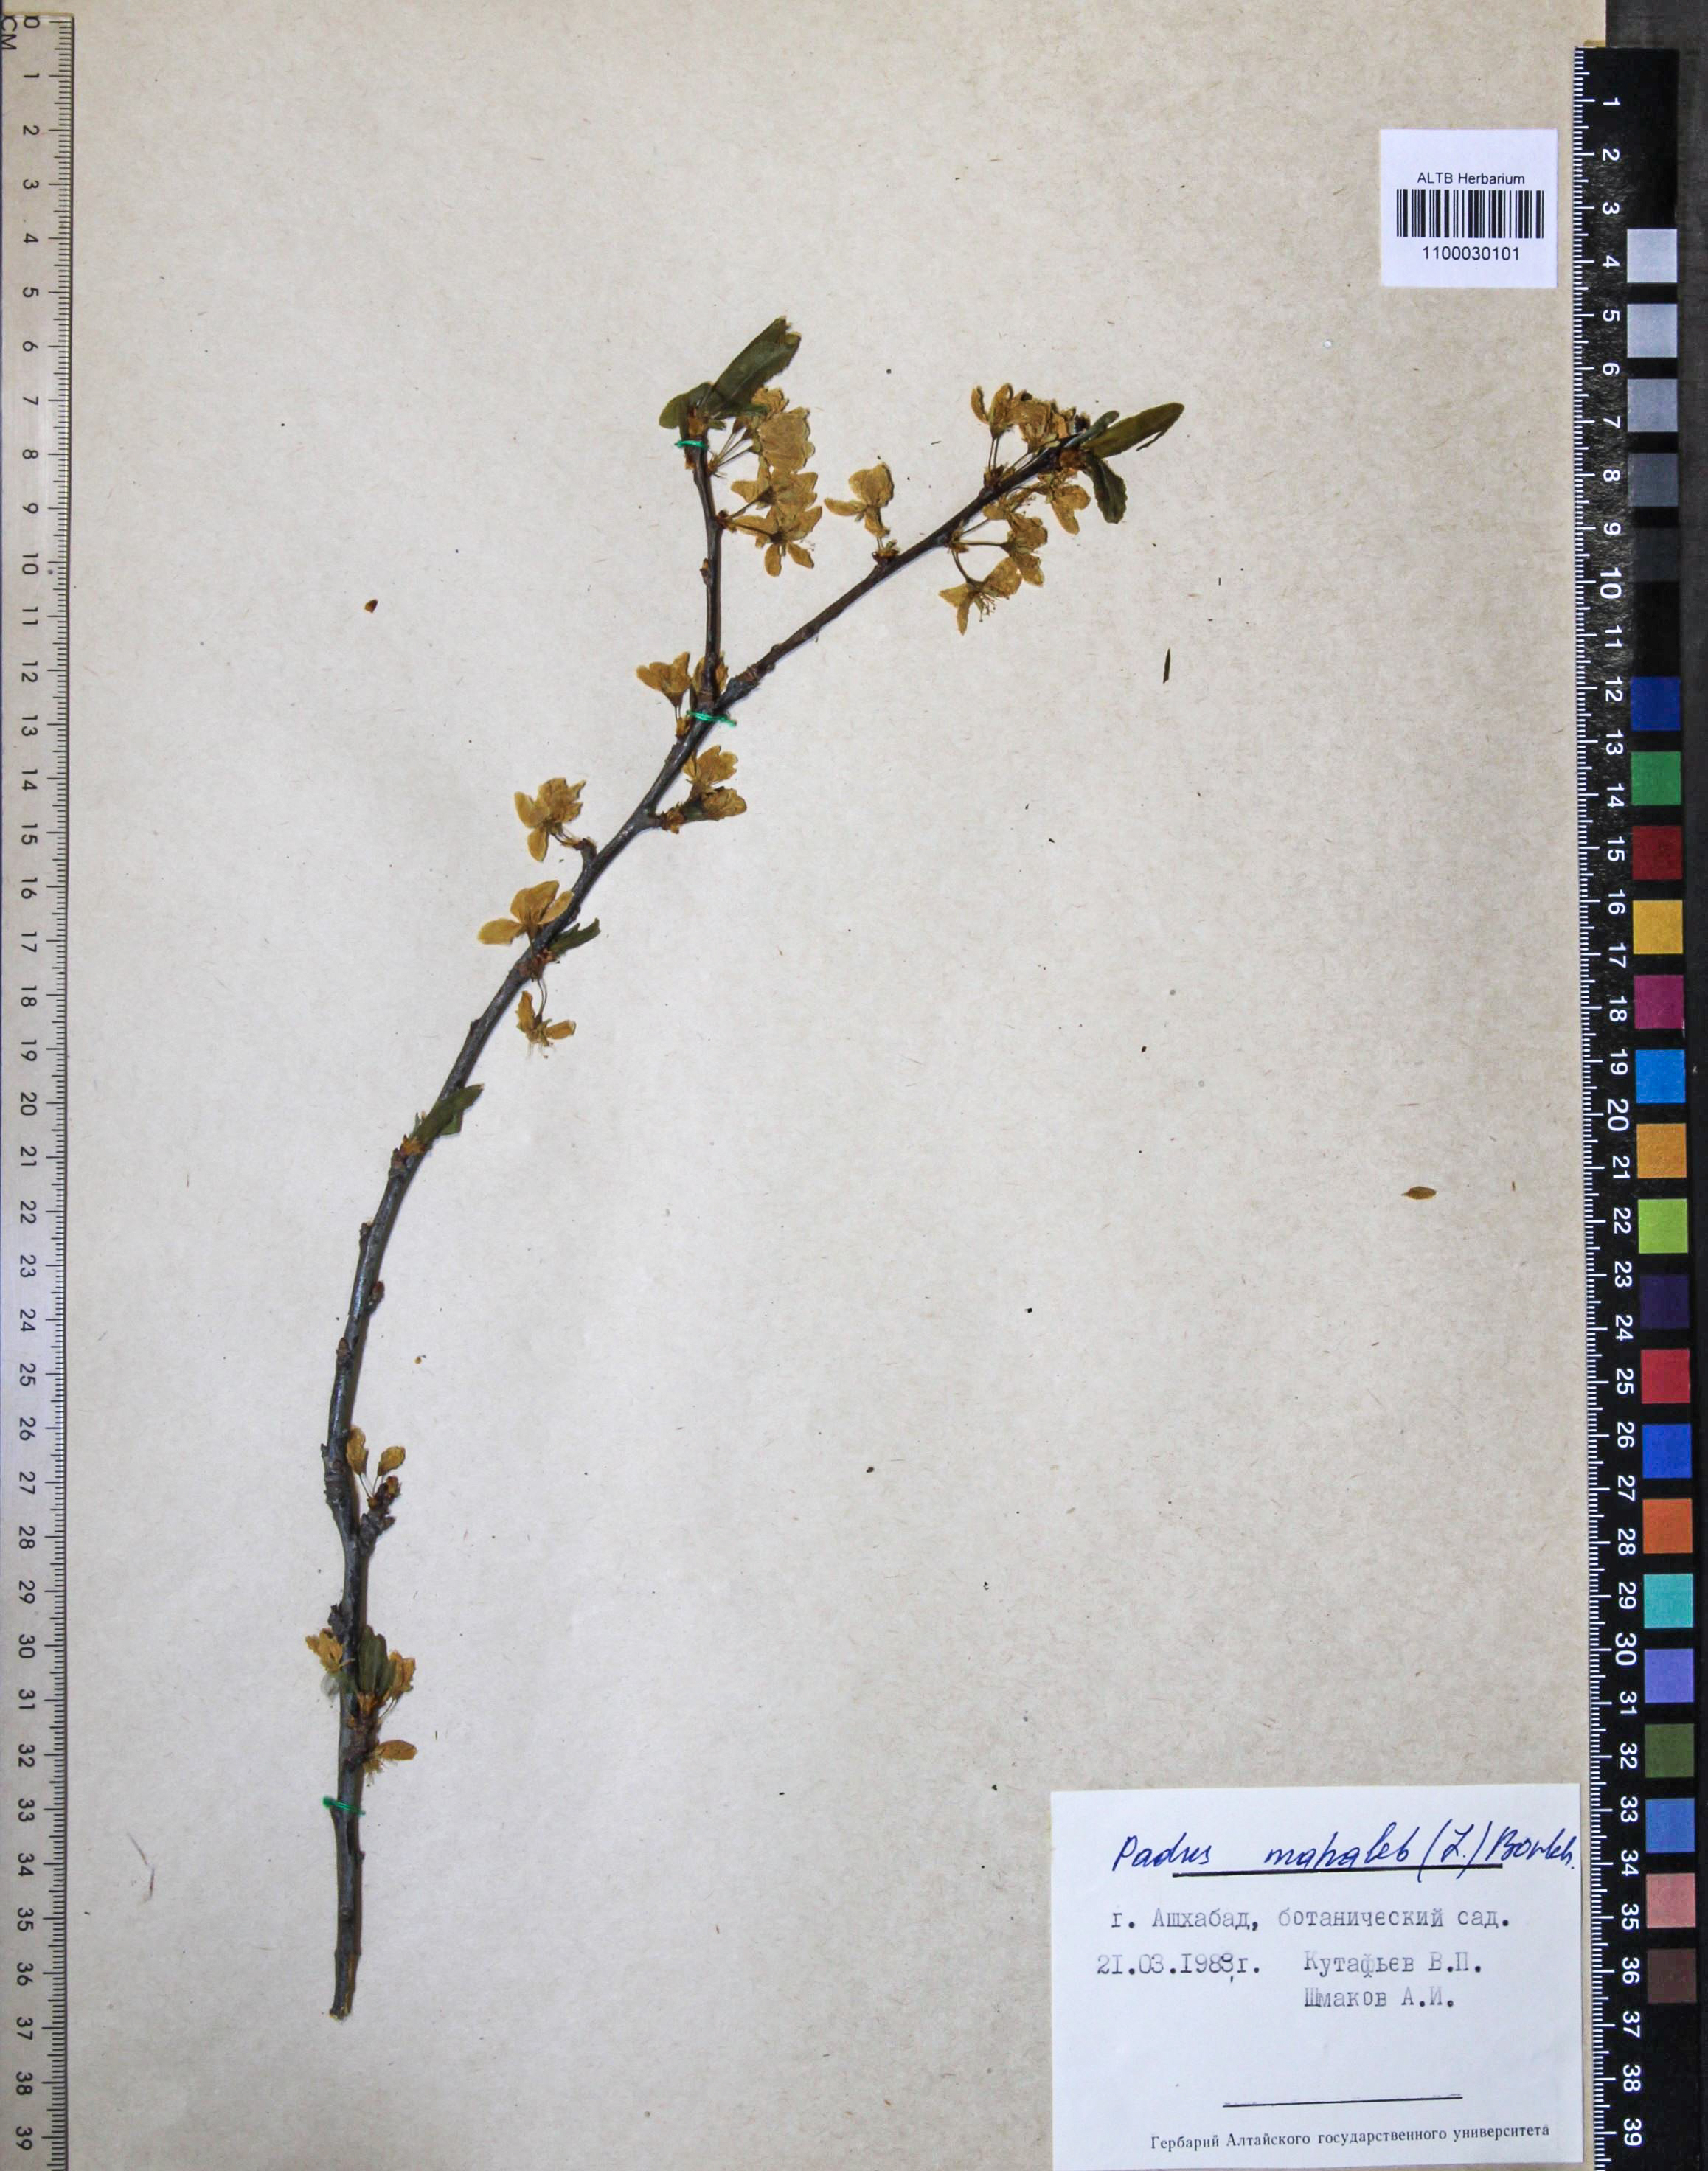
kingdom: Plantae
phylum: Tracheophyta
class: Magnoliopsida
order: Rosales
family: Rosaceae
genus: Prunus
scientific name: Prunus mahaleb
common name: Mahaleb cherry
